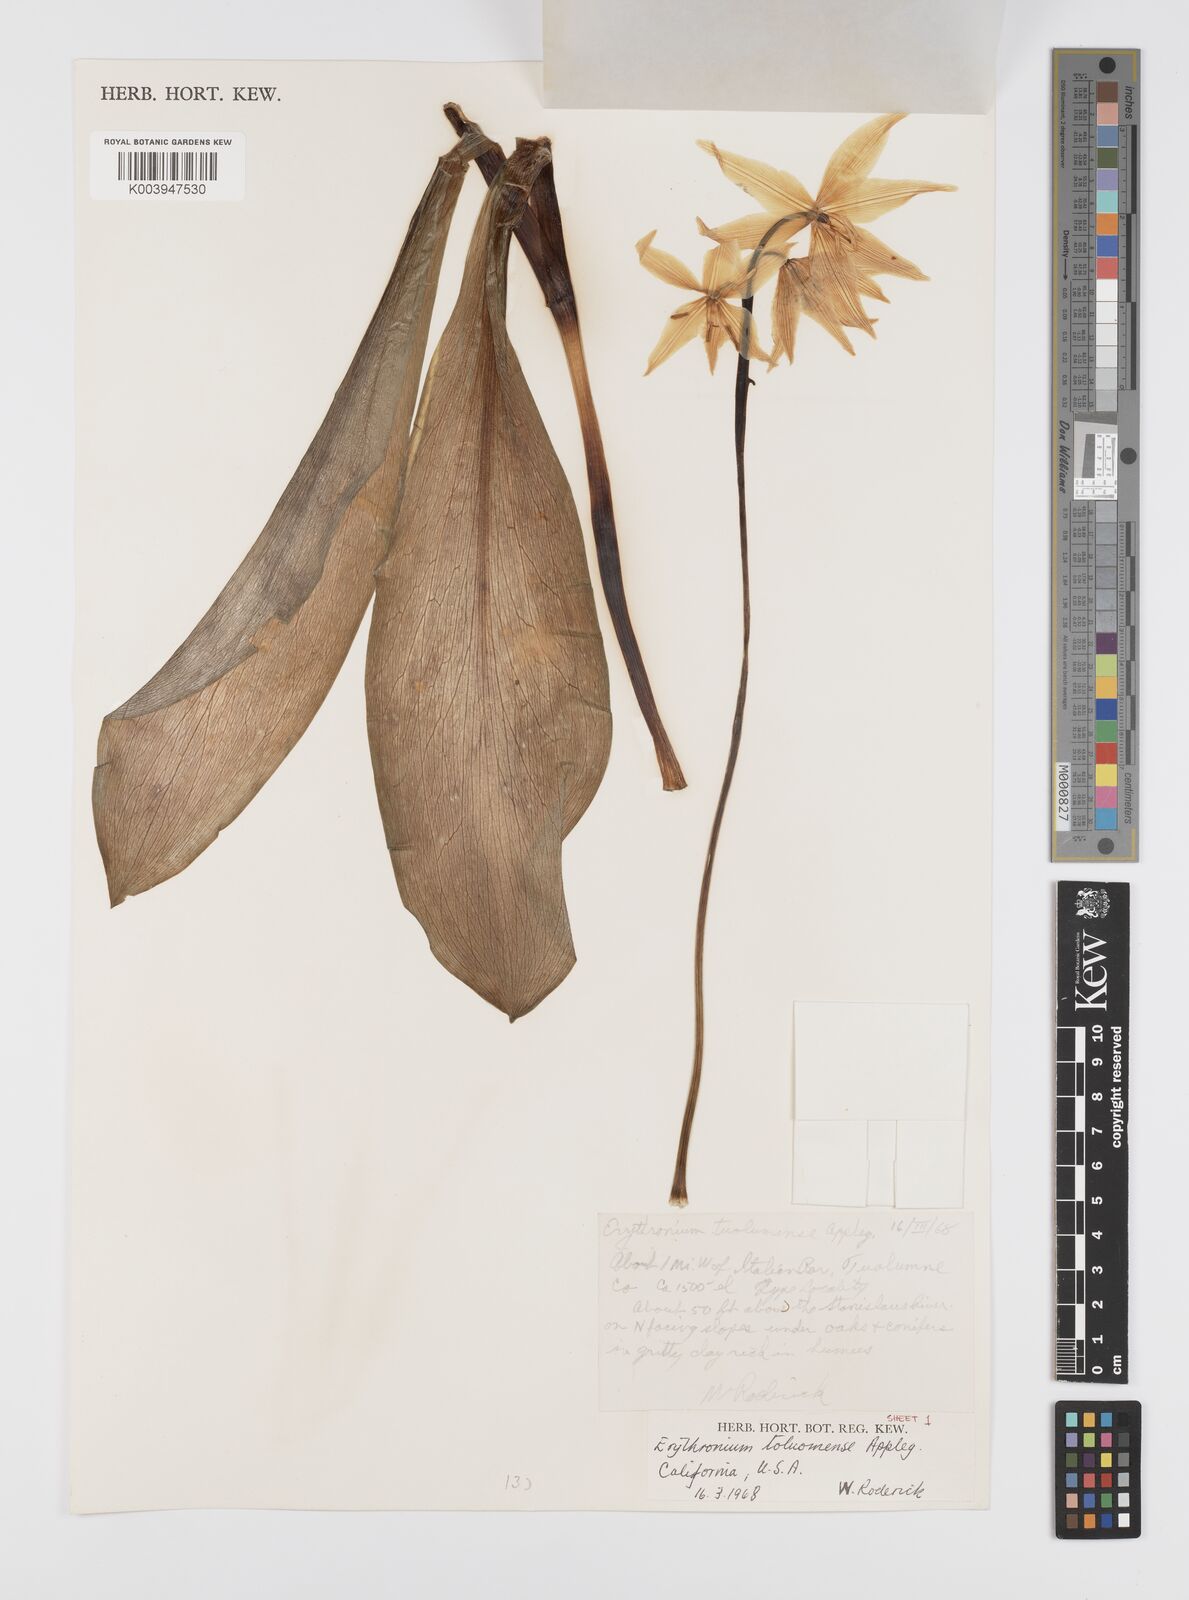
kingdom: Plantae
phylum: Tracheophyta
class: Liliopsida
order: Liliales
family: Liliaceae
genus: Erythronium
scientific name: Erythronium tuolumnense
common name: Tuolumne fawn-lily
